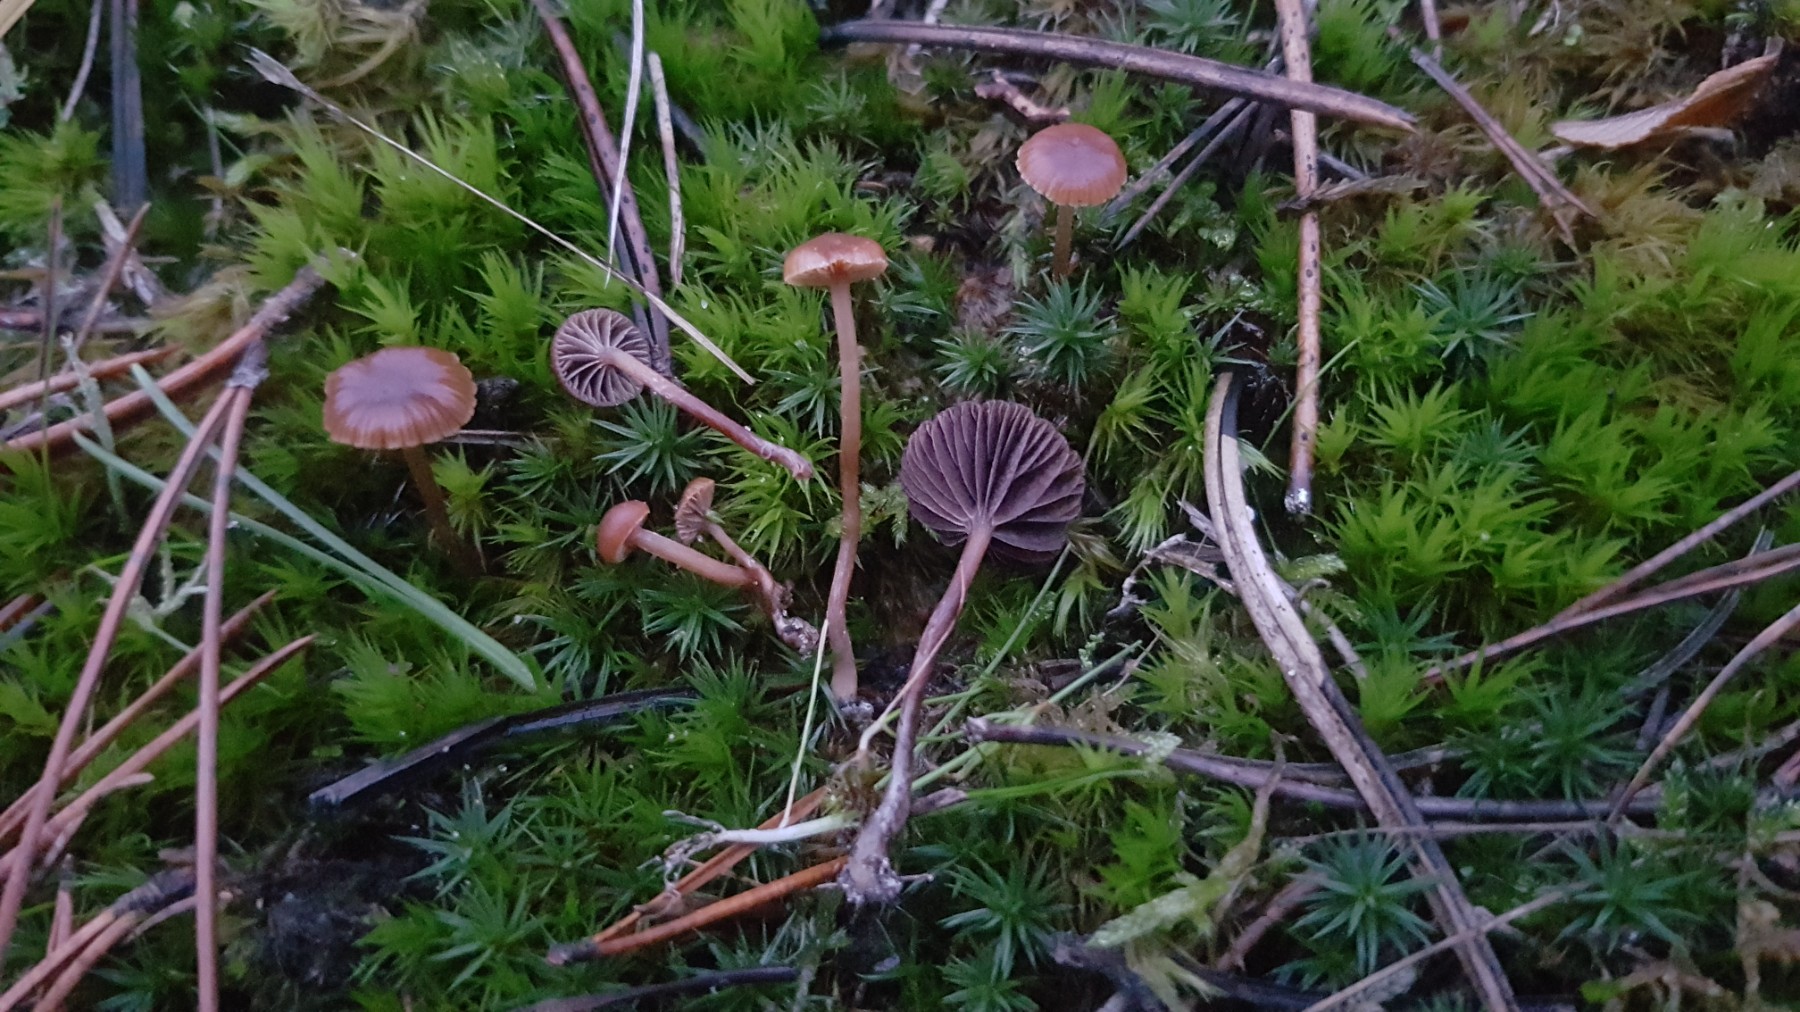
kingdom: Fungi
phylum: Basidiomycota
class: Agaricomycetes
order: Agaricales
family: Strophariaceae
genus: Deconica
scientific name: Deconica montana
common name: rødbrun stråhat
